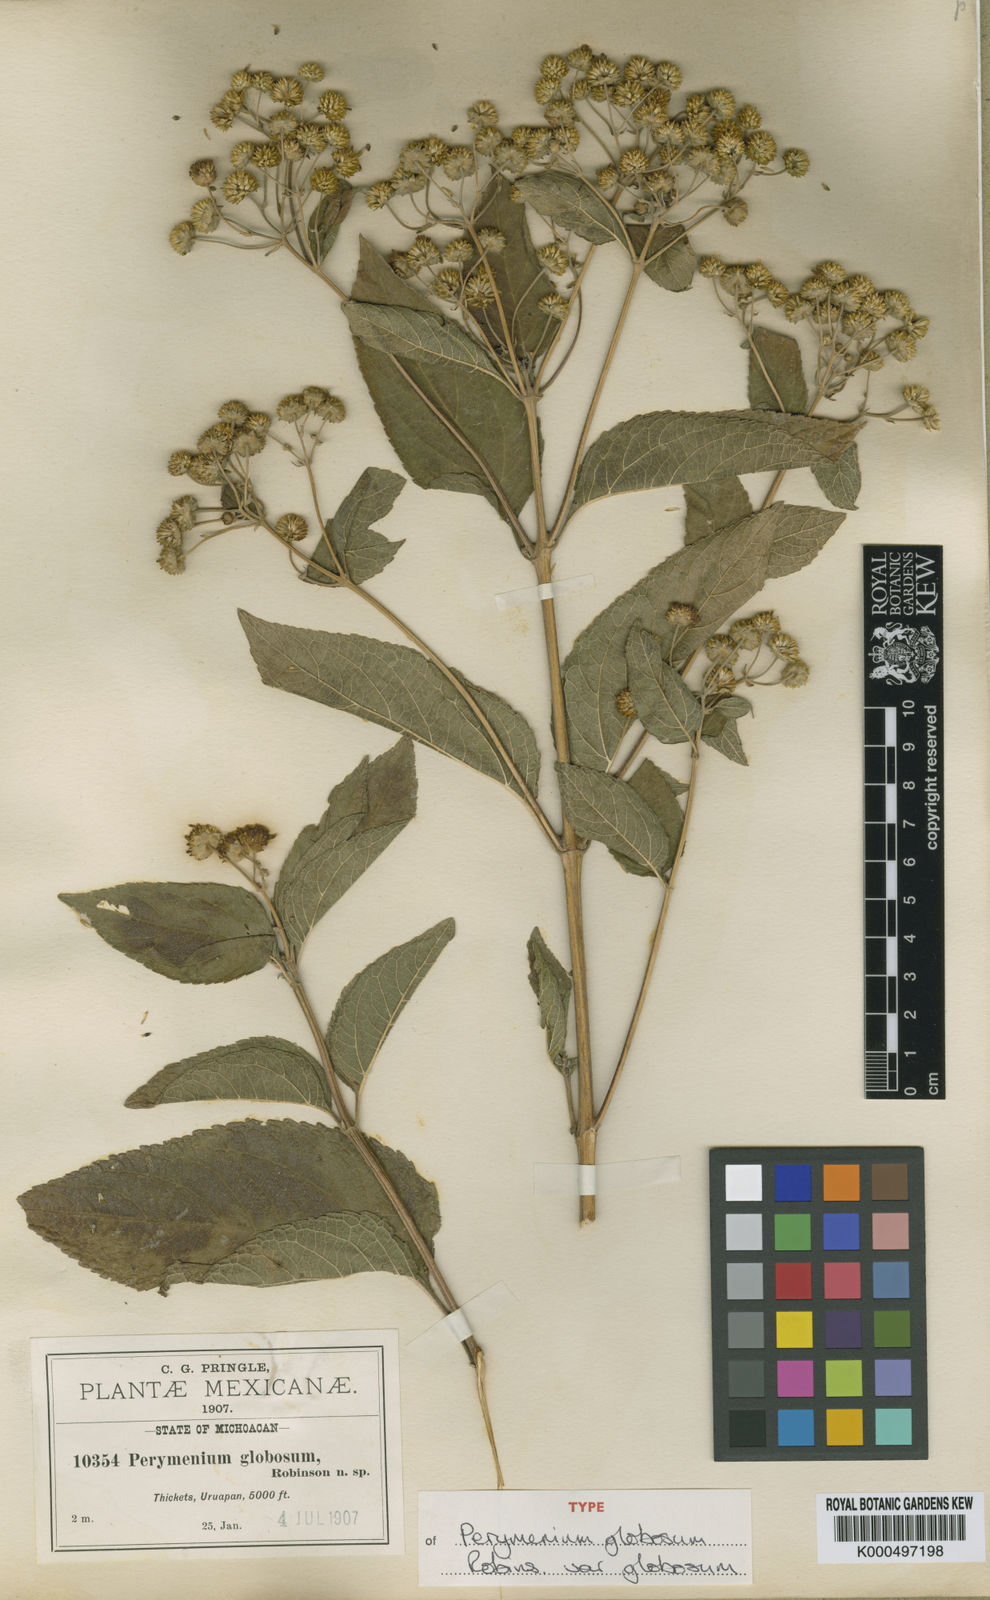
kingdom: Plantae
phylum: Tracheophyta
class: Magnoliopsida
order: Asterales
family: Asteraceae
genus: Perymenium
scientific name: Perymenium globosum
